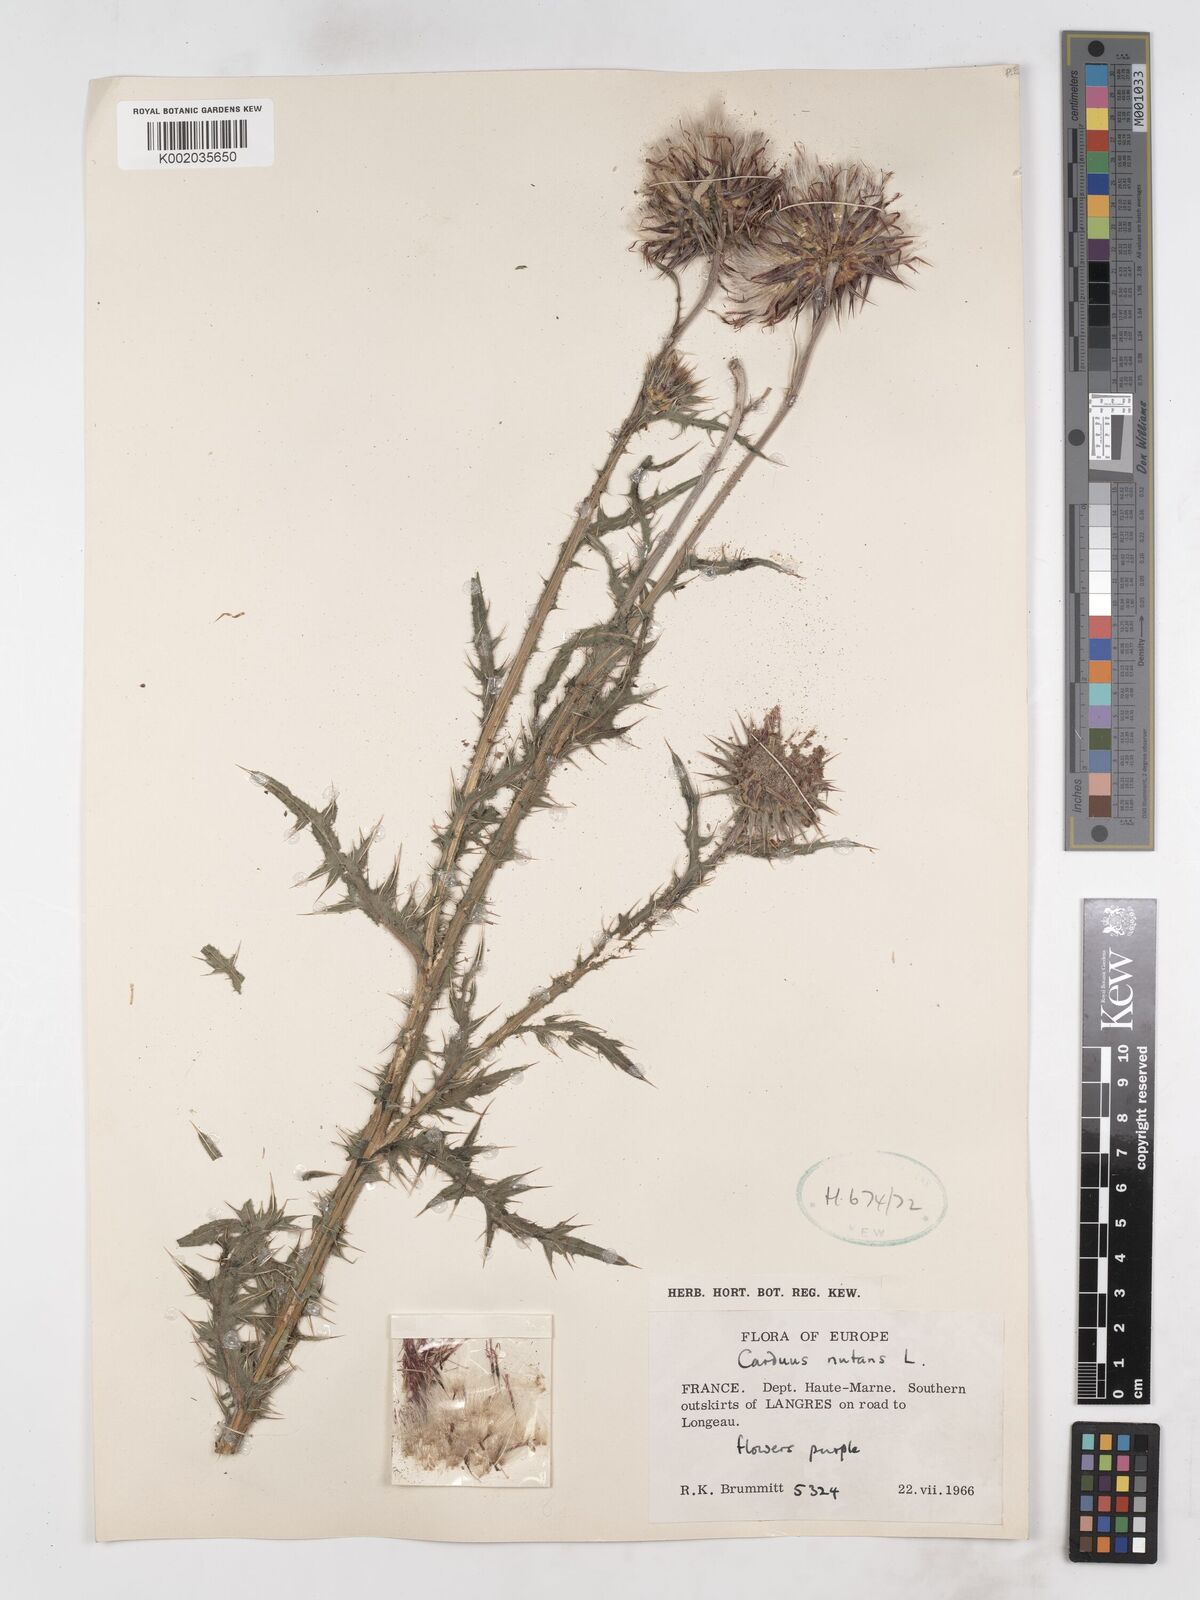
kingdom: Plantae
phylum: Tracheophyta
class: Magnoliopsida
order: Asterales
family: Asteraceae
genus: Carduus
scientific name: Carduus nutans
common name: Musk thistle
